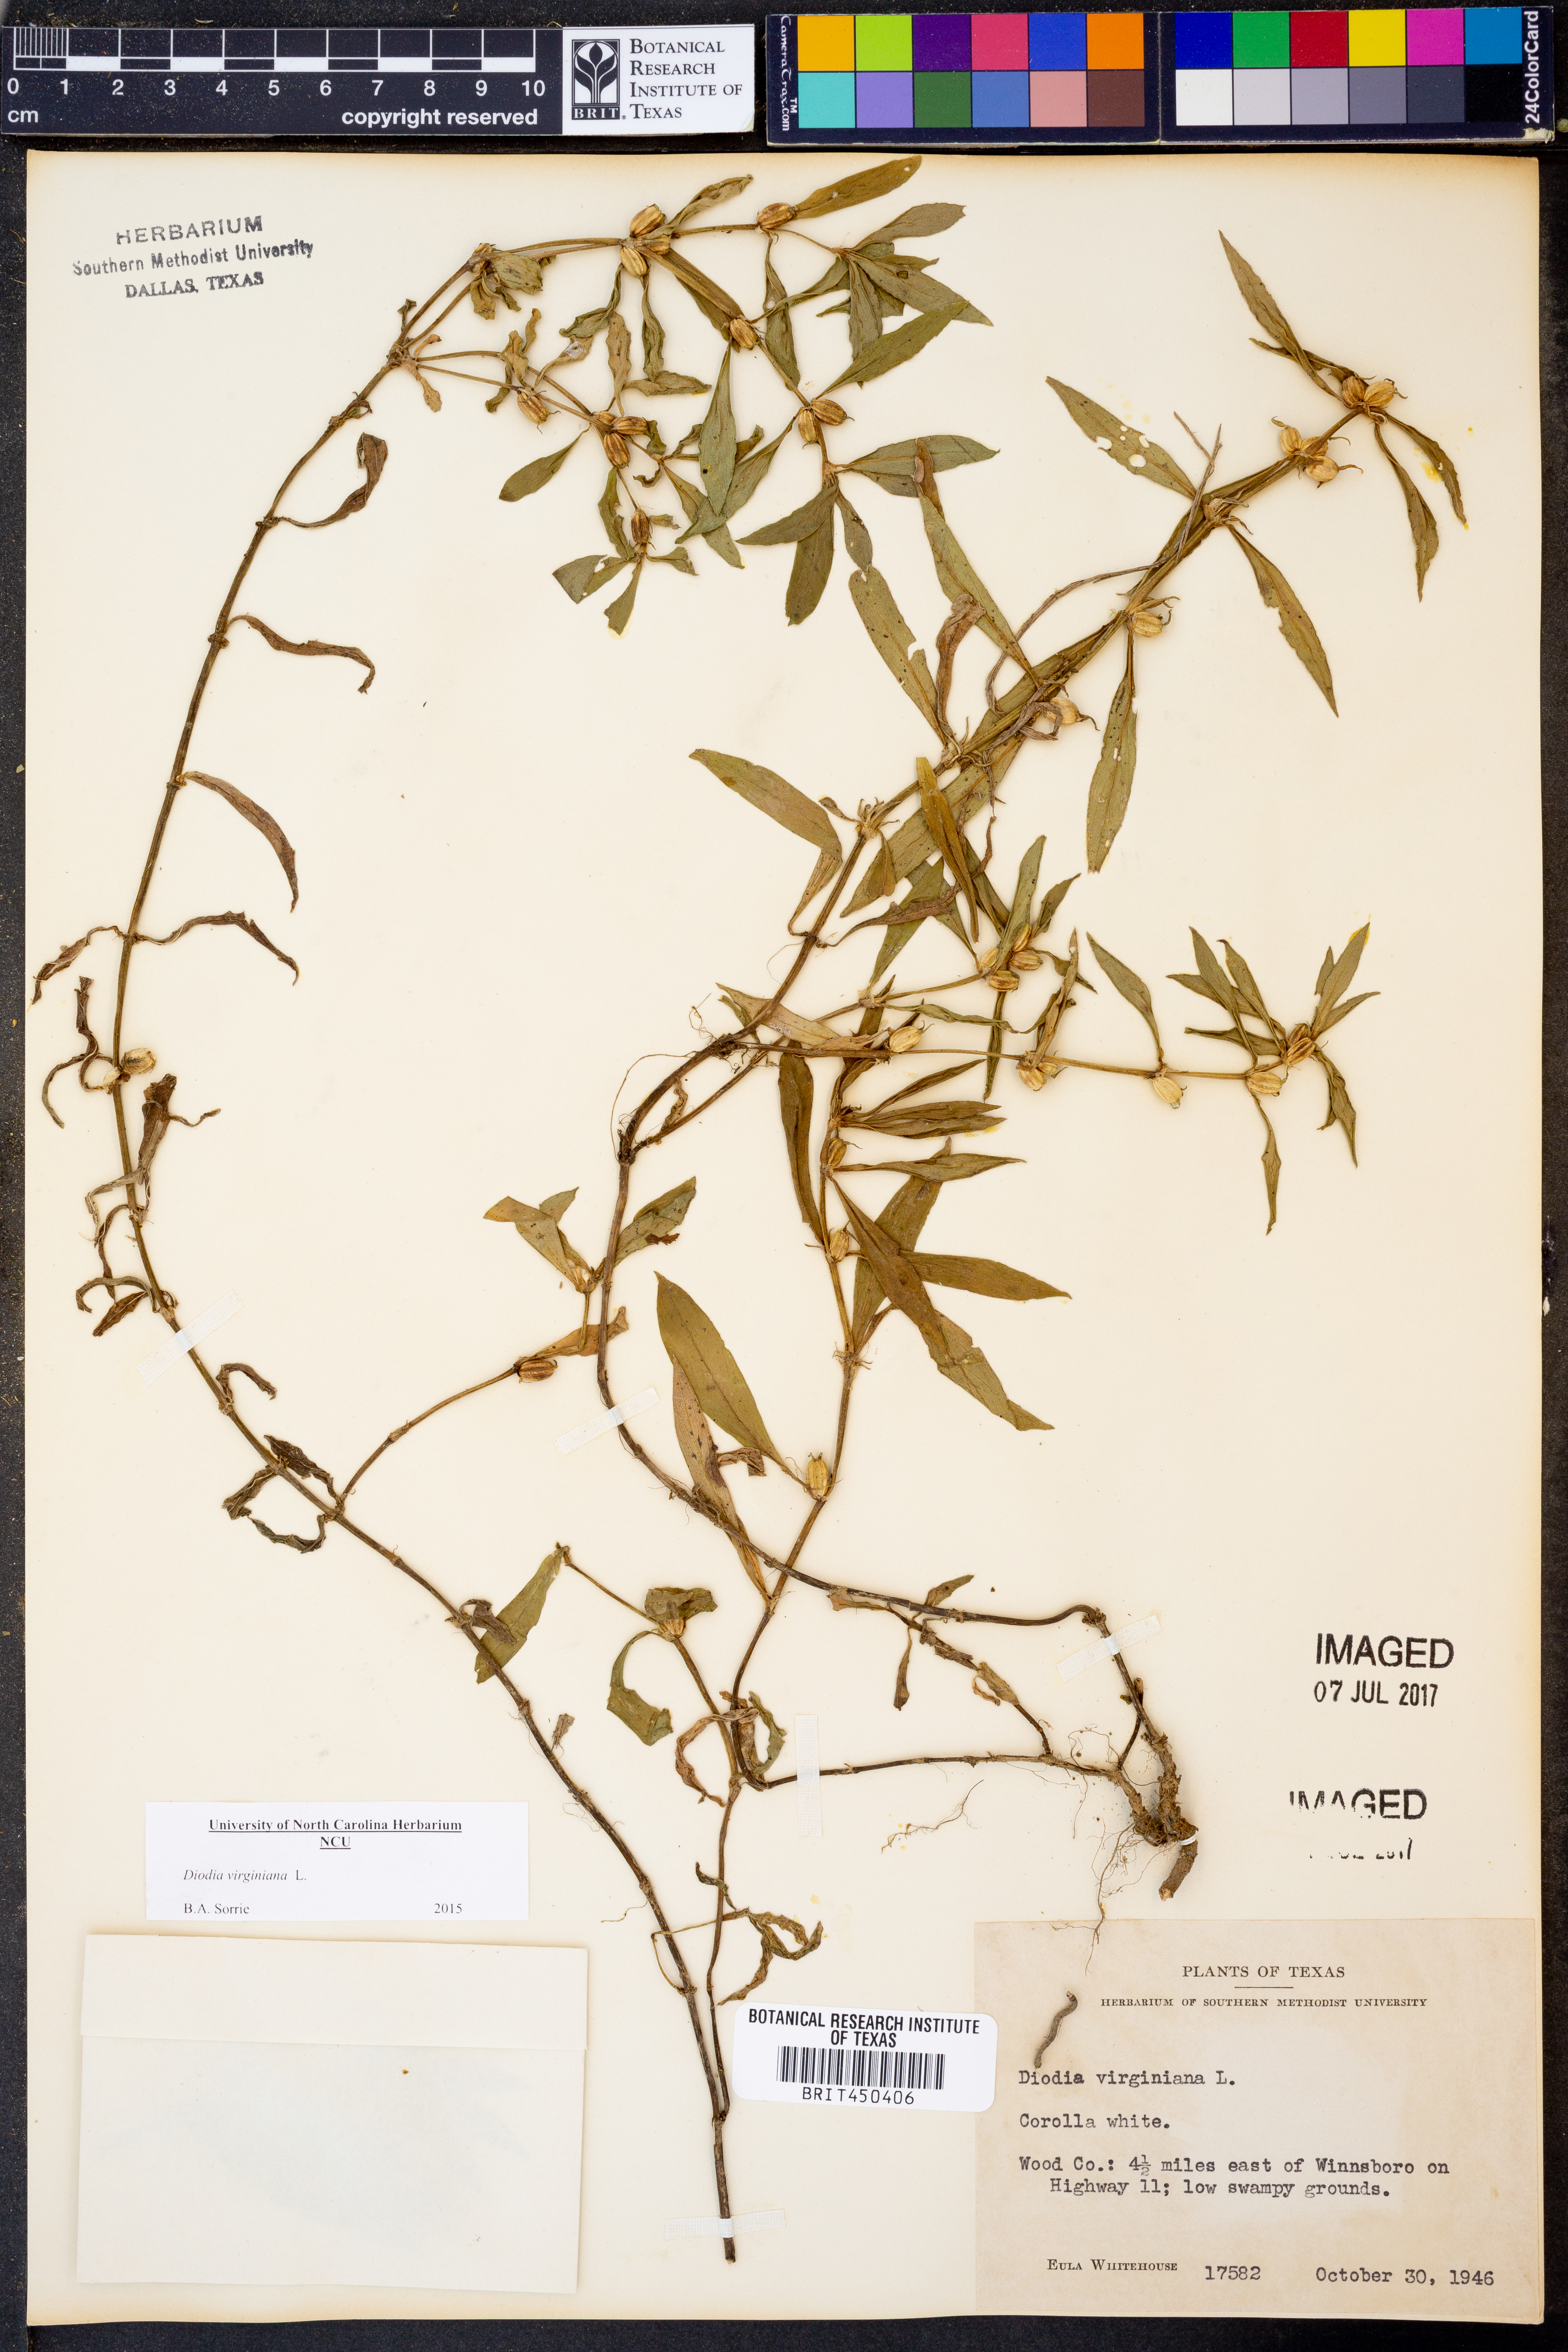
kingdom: Plantae
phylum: Tracheophyta
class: Magnoliopsida
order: Gentianales
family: Rubiaceae
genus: Diodia
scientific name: Diodia virginiana
